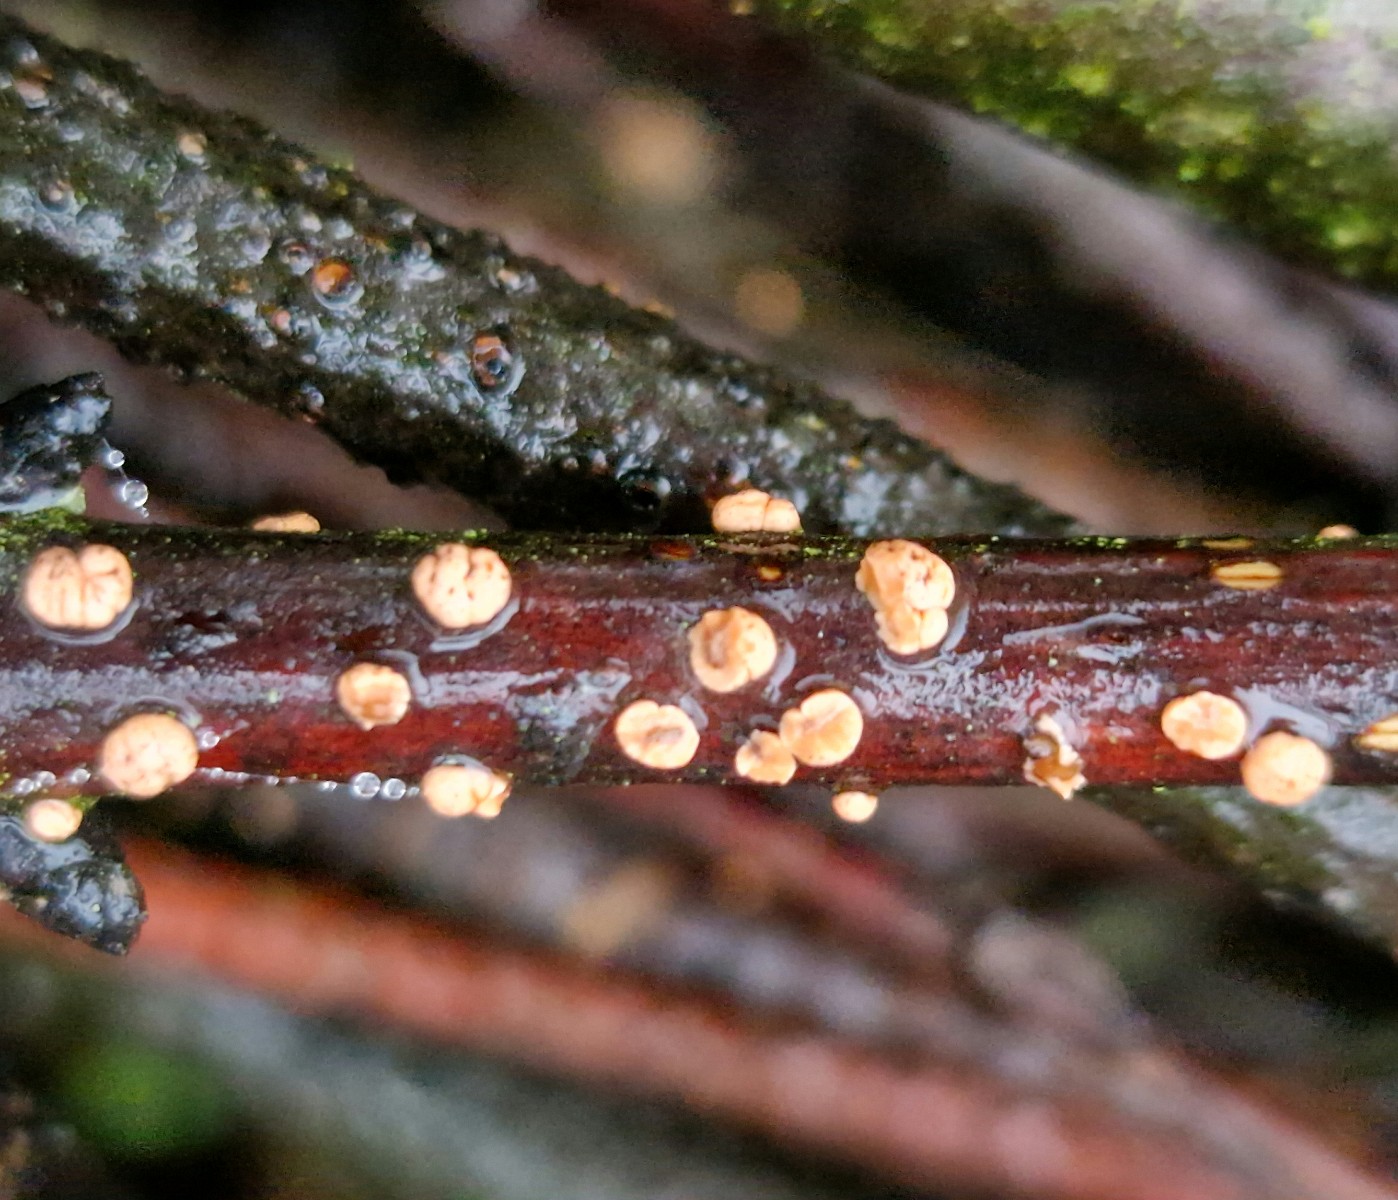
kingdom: Fungi
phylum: Ascomycota
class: Sordariomycetes
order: Hypocreales
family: Nectriaceae
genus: Nectria
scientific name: Nectria cinnabarina
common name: almindelig cinnobersvamp
